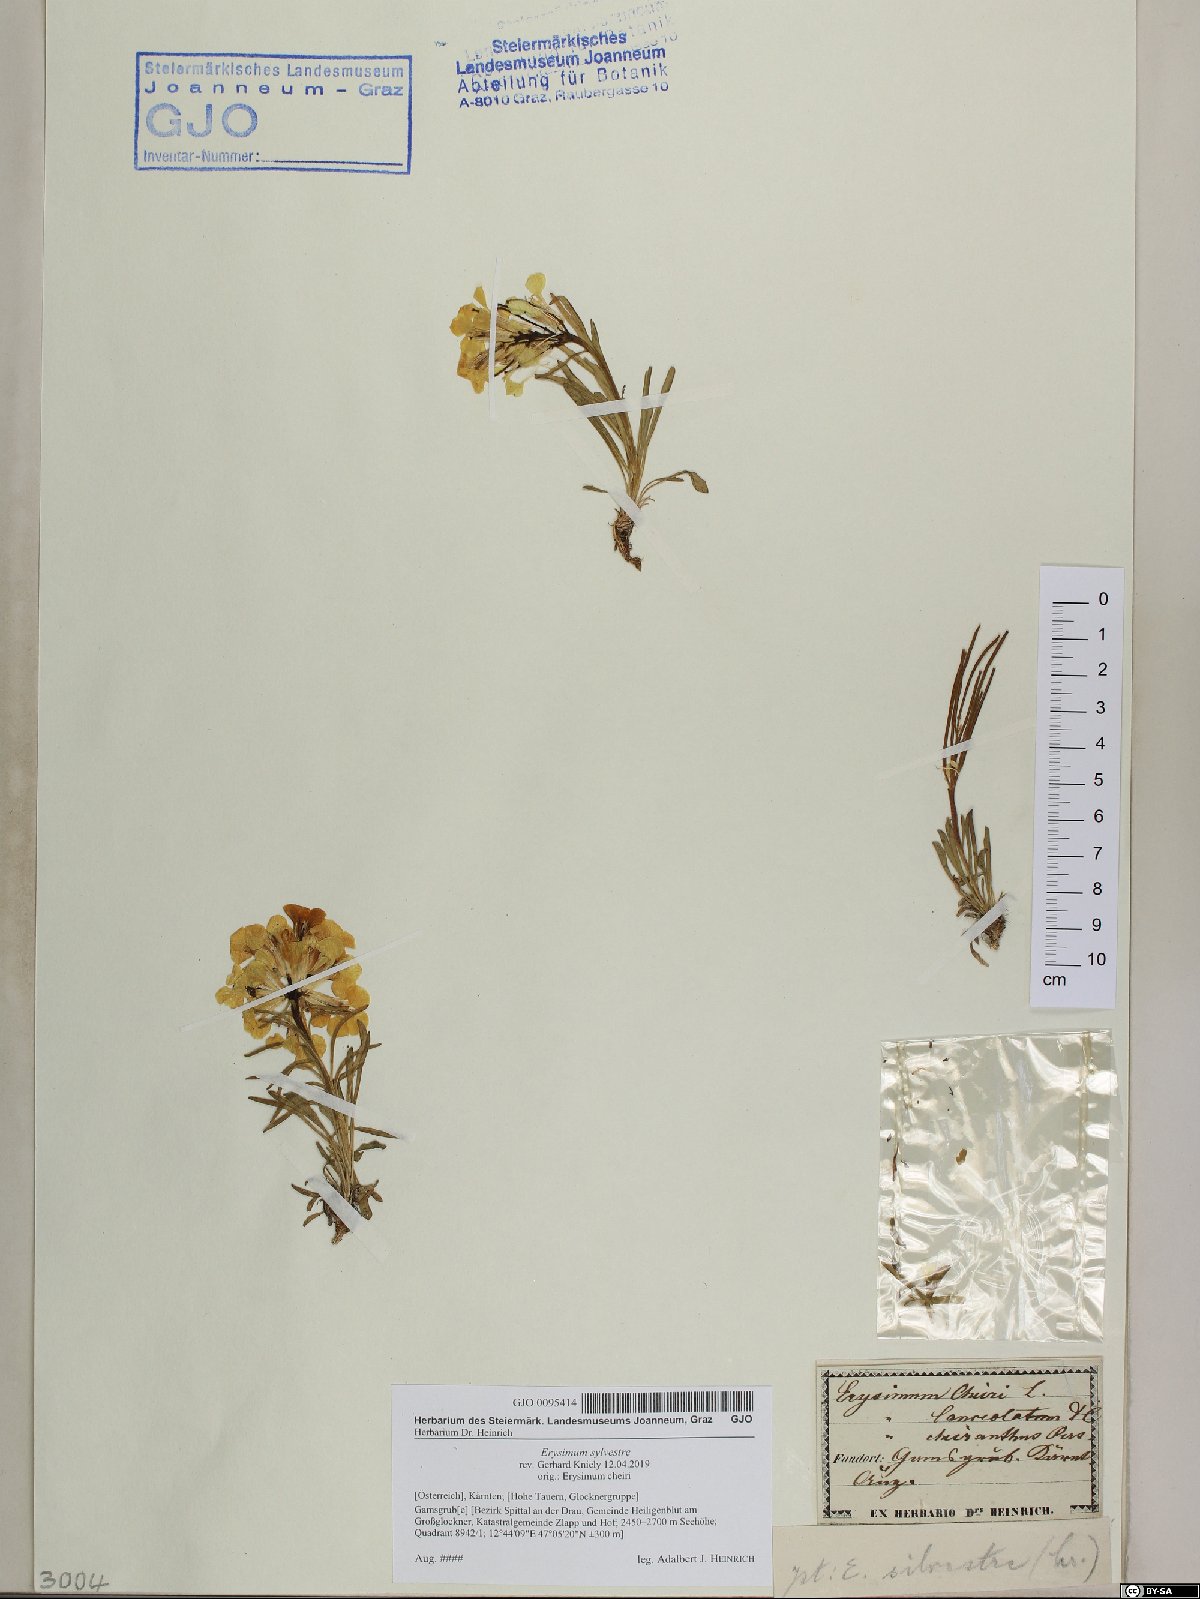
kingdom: Plantae
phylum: Tracheophyta
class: Magnoliopsida
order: Brassicales
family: Brassicaceae
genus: Erysimum
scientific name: Erysimum sylvestre
